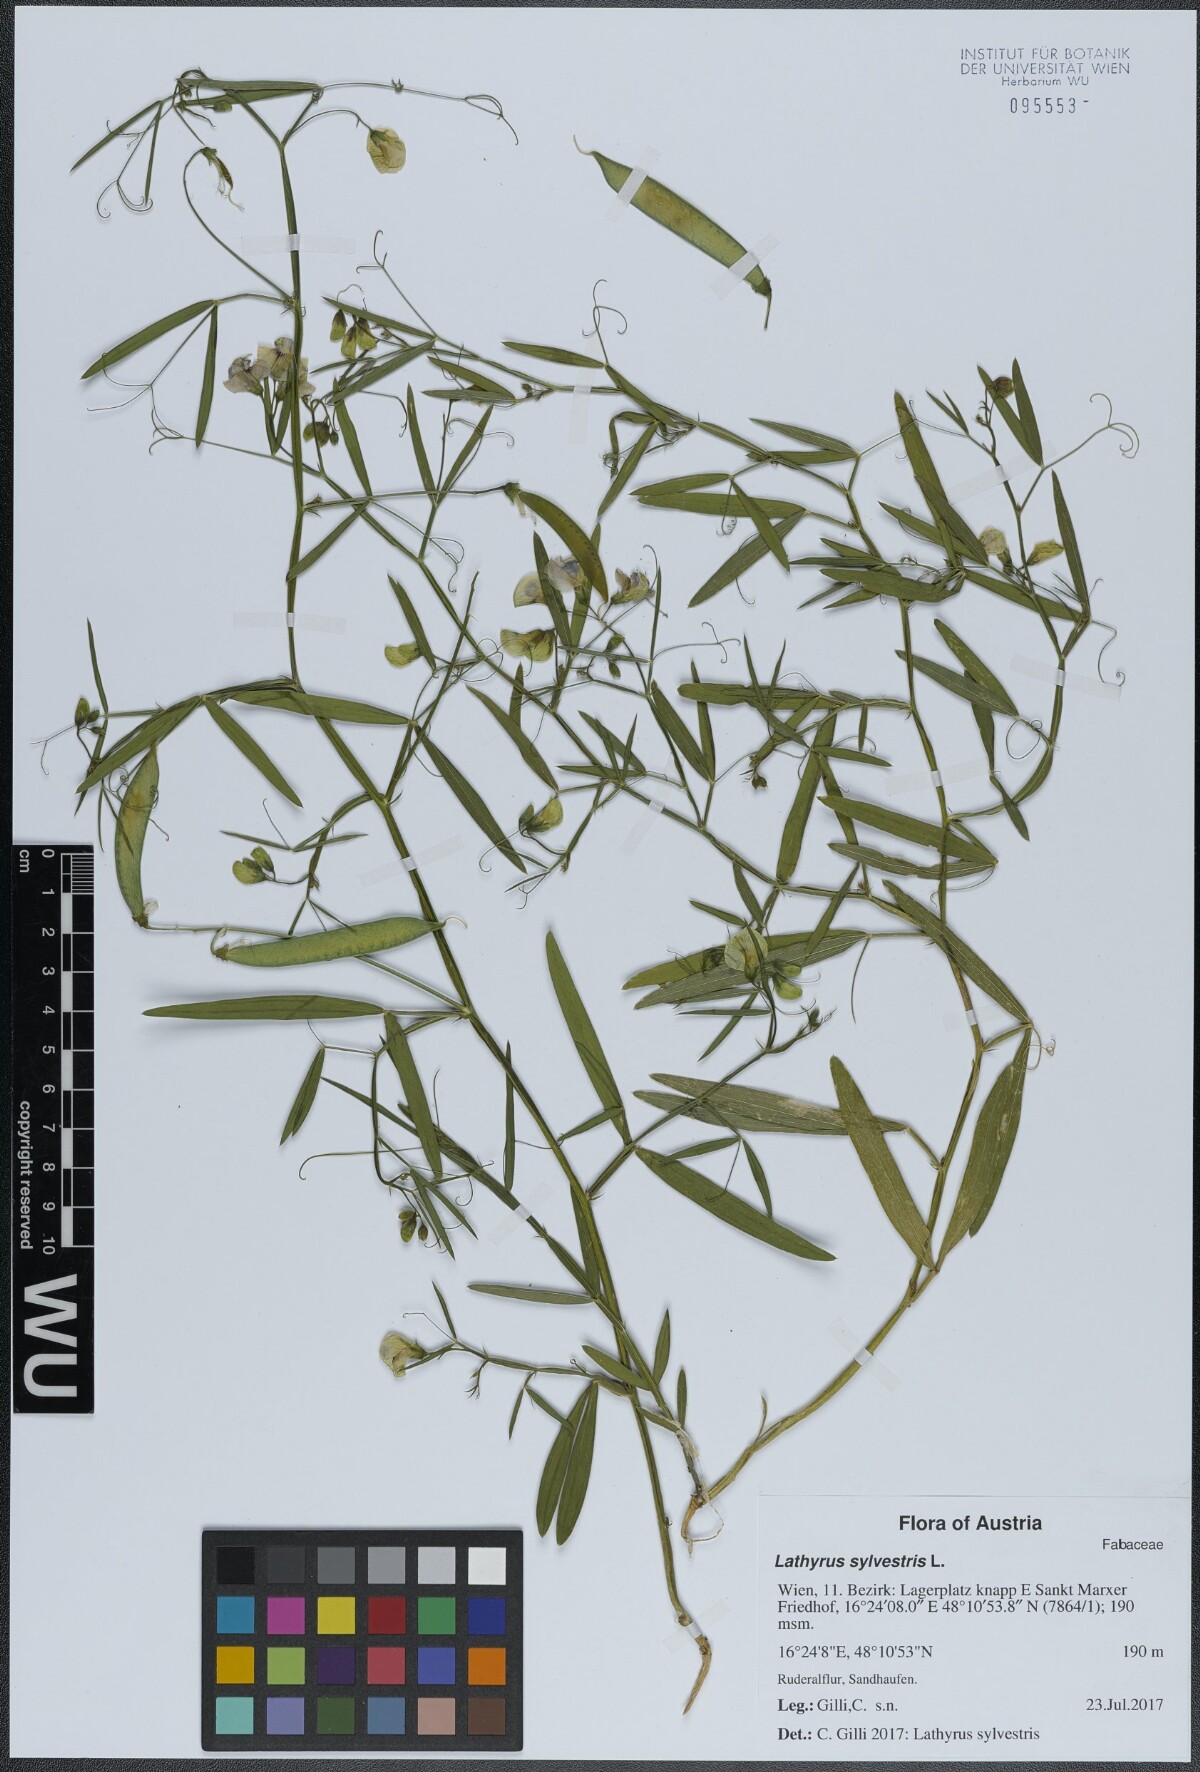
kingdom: Plantae
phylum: Tracheophyta
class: Magnoliopsida
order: Fabales
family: Fabaceae
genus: Lathyrus
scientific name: Lathyrus sylvestris
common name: Flat pea
